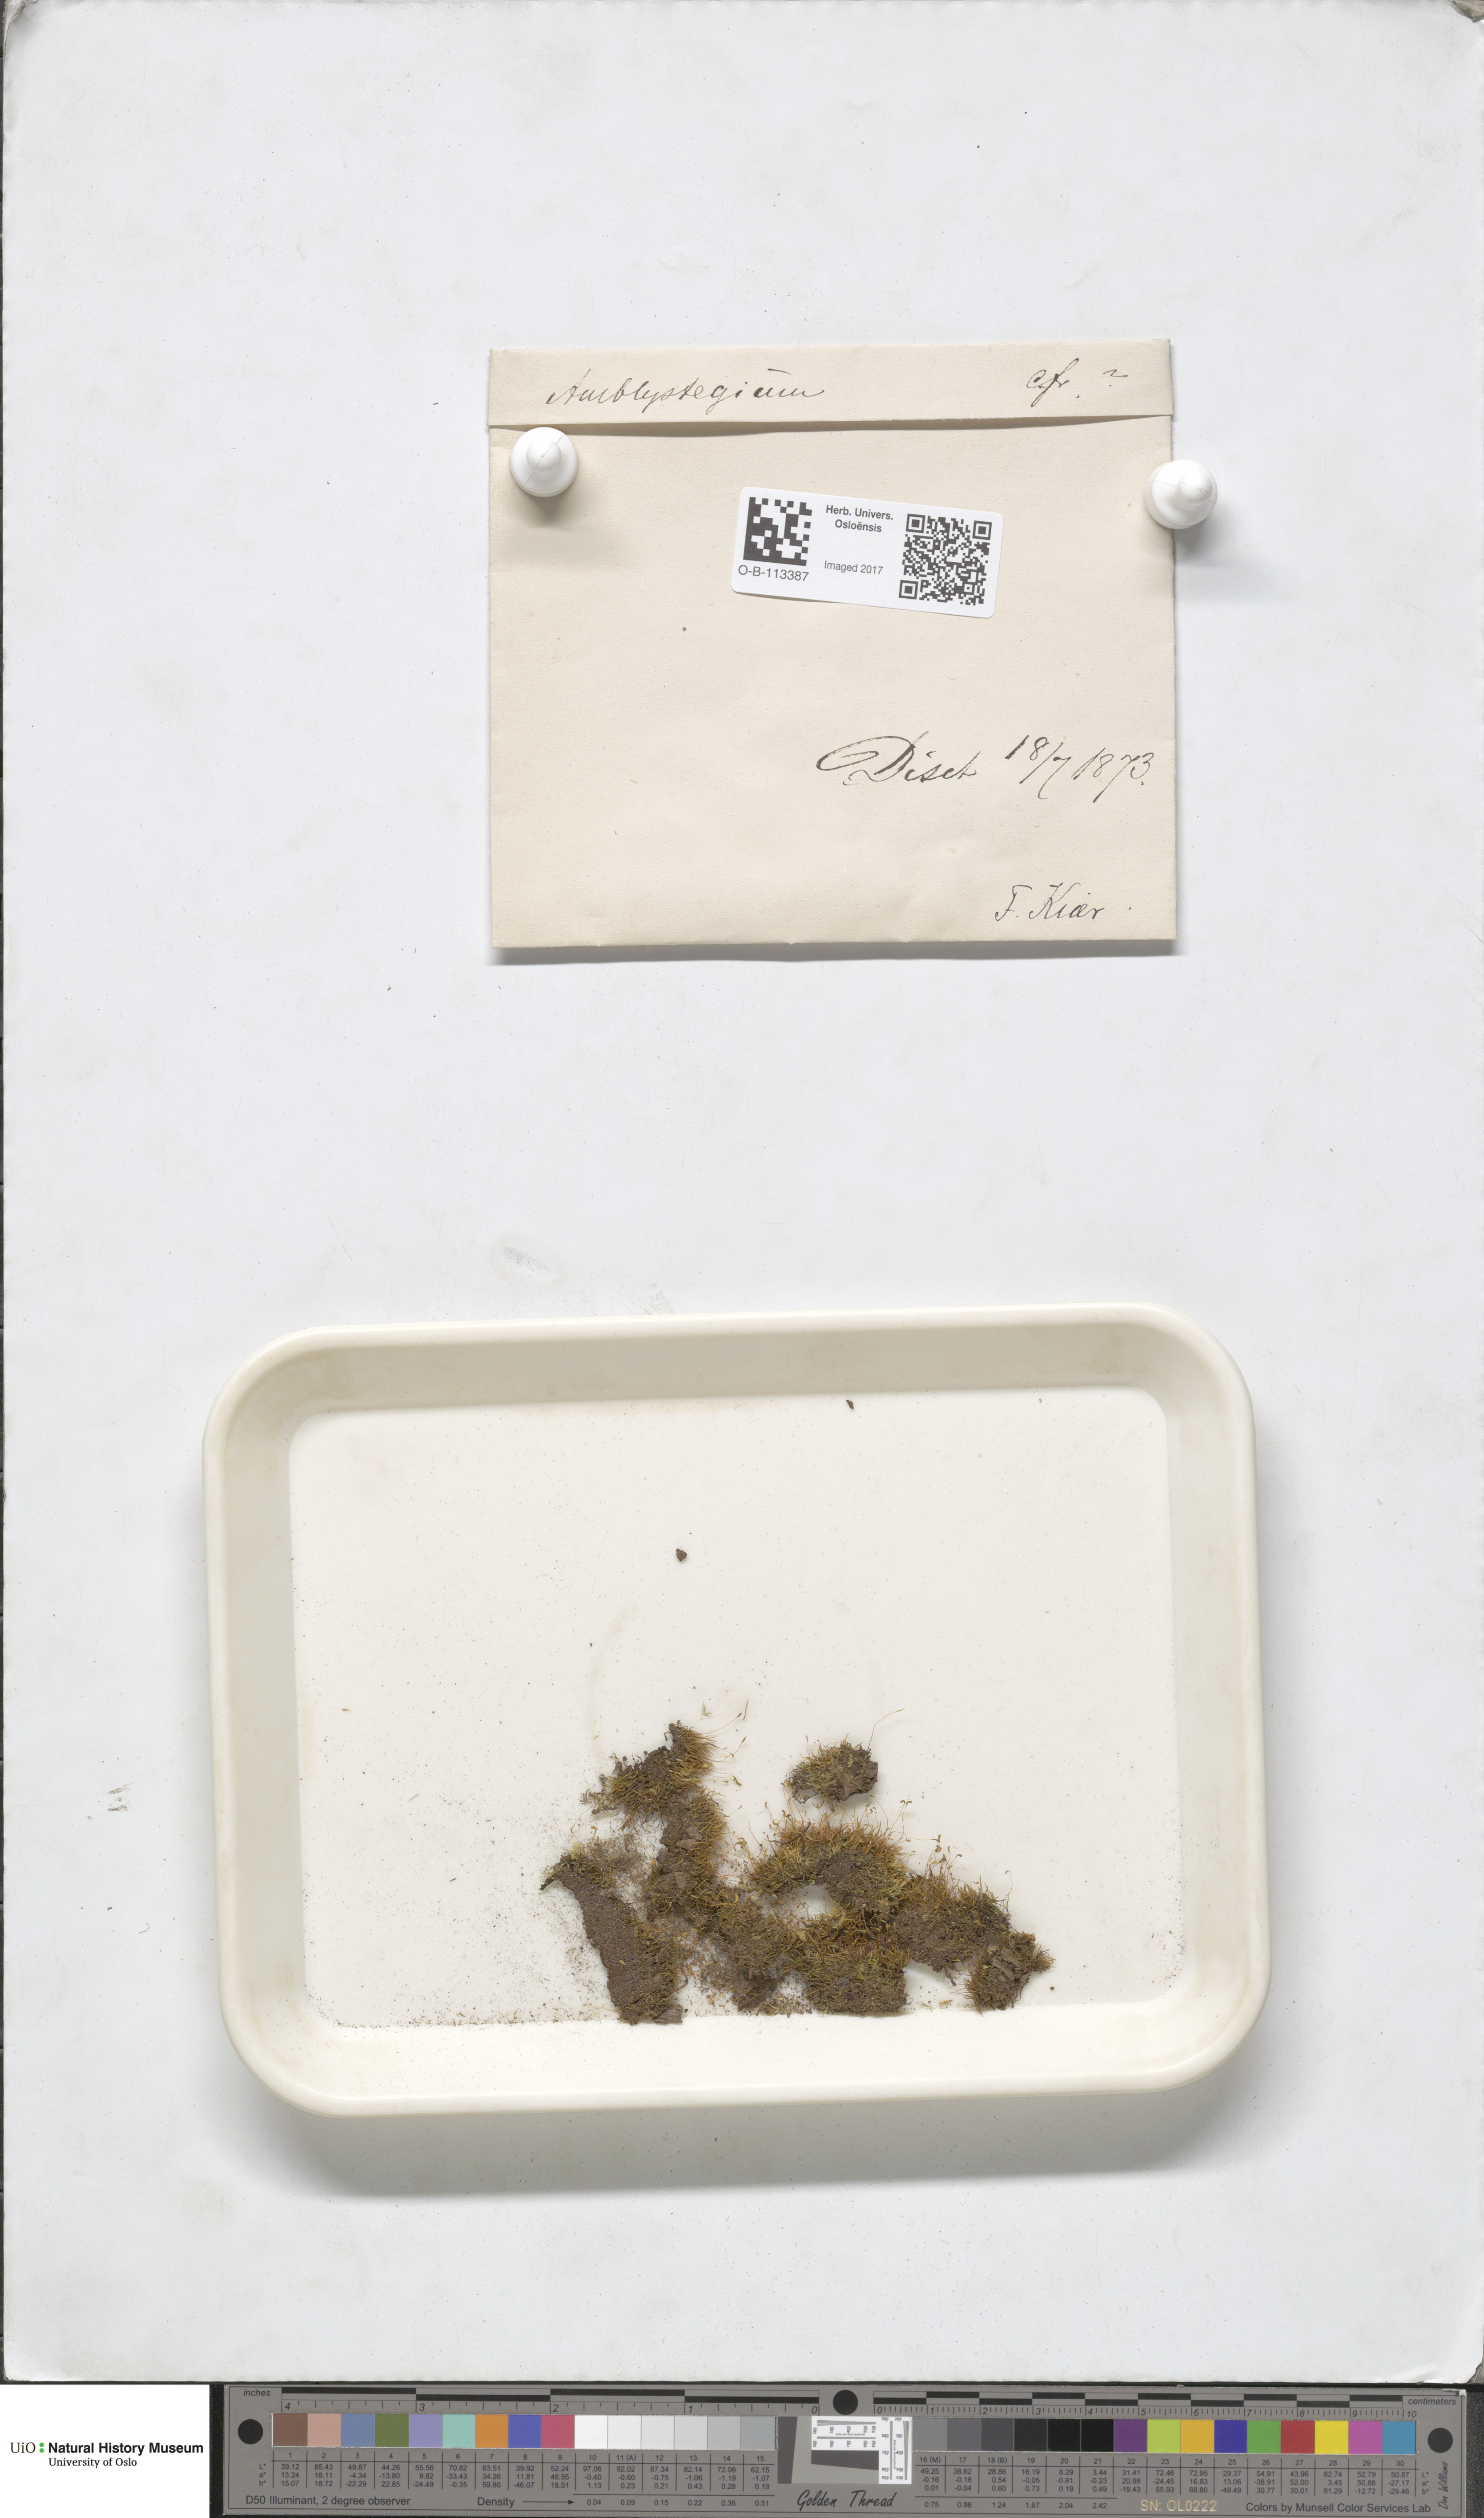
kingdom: Plantae
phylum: Bryophyta
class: Bryopsida
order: Hypnales
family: Amblystegiaceae
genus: Amblystegium
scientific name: Amblystegium
